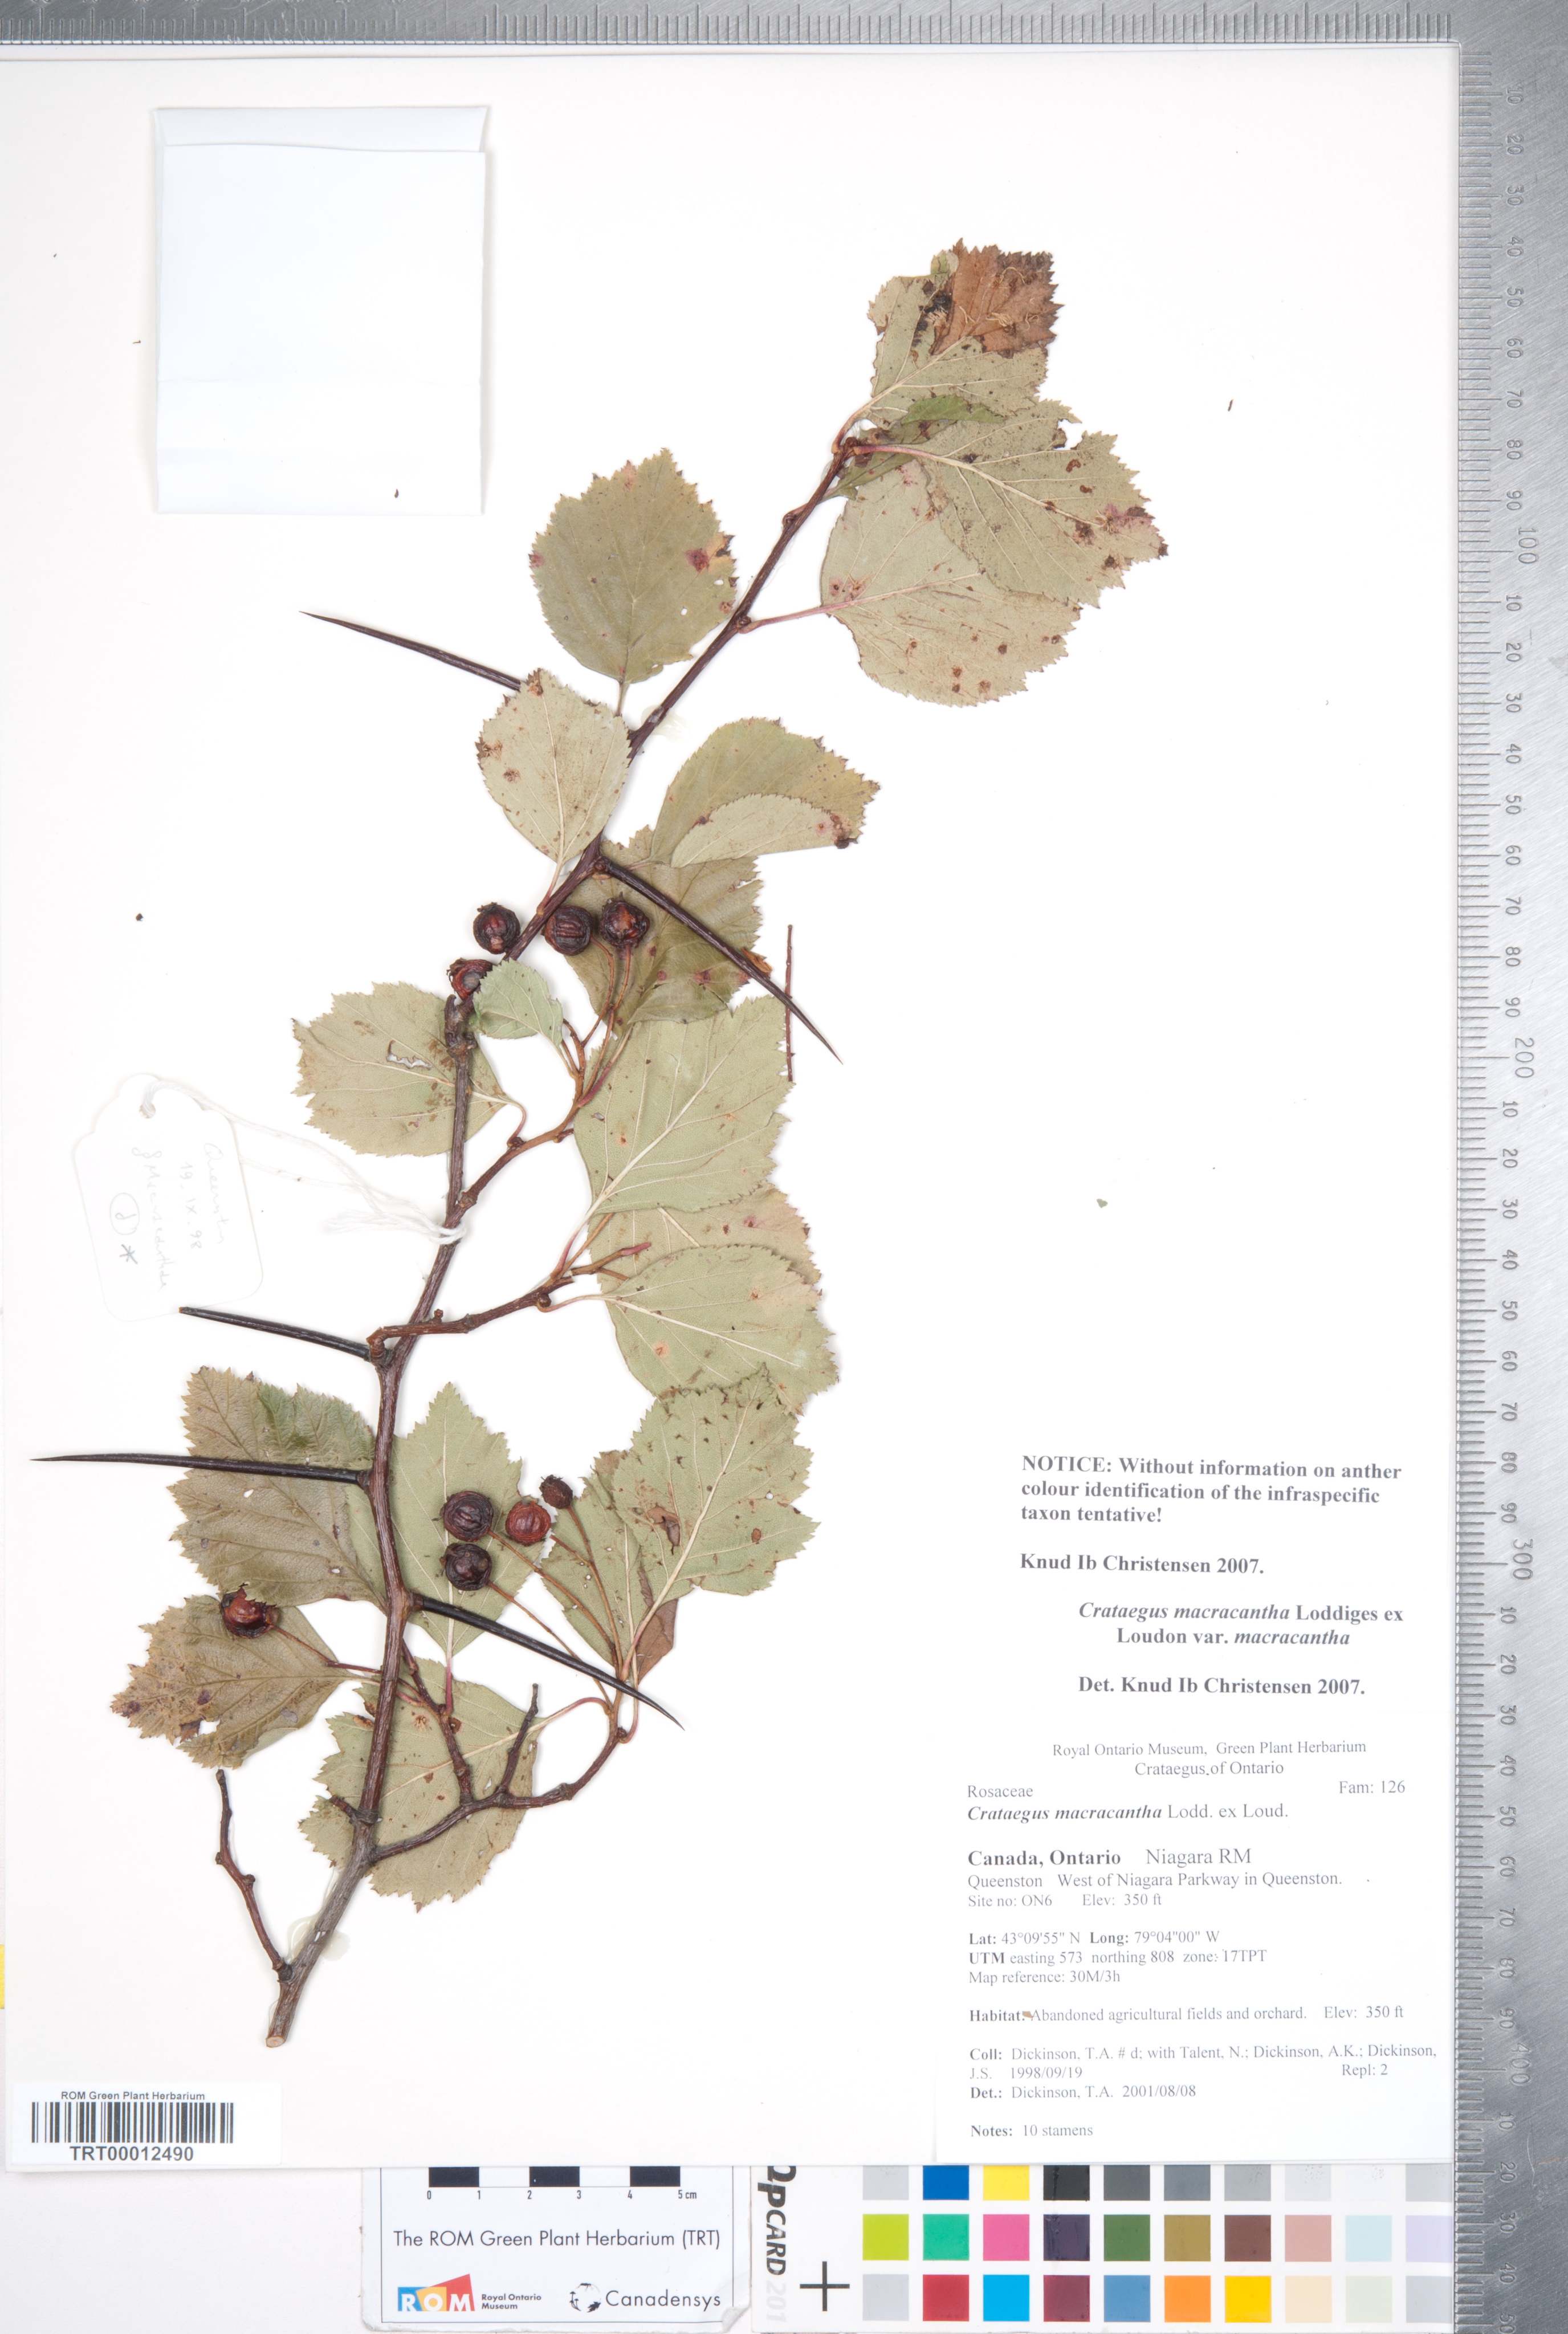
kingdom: Plantae
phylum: Tracheophyta
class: Magnoliopsida
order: Rosales
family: Rosaceae
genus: Crataegus
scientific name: Crataegus macracantha
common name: Large-thorn hawthorn
